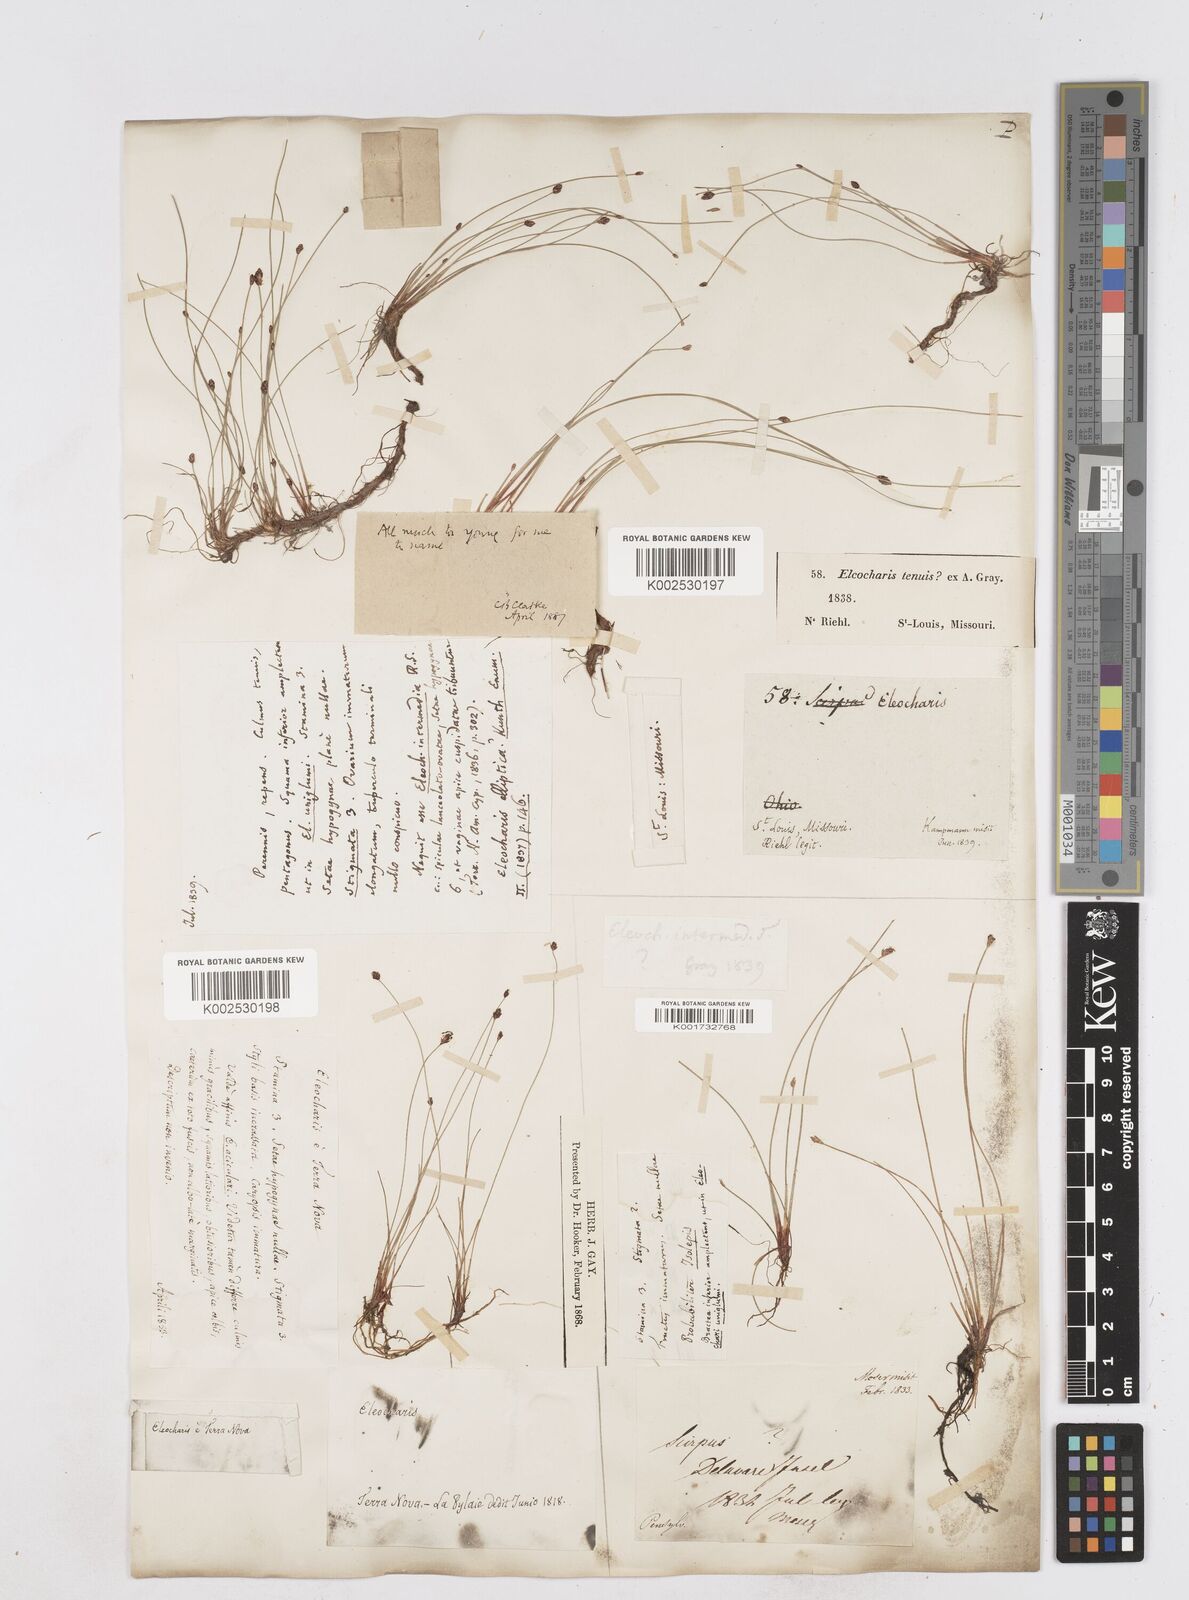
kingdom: Plantae
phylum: Tracheophyta
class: Liliopsida
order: Poales
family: Cyperaceae
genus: Eleocharis
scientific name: Eleocharis tenuis
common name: Dog's hair
